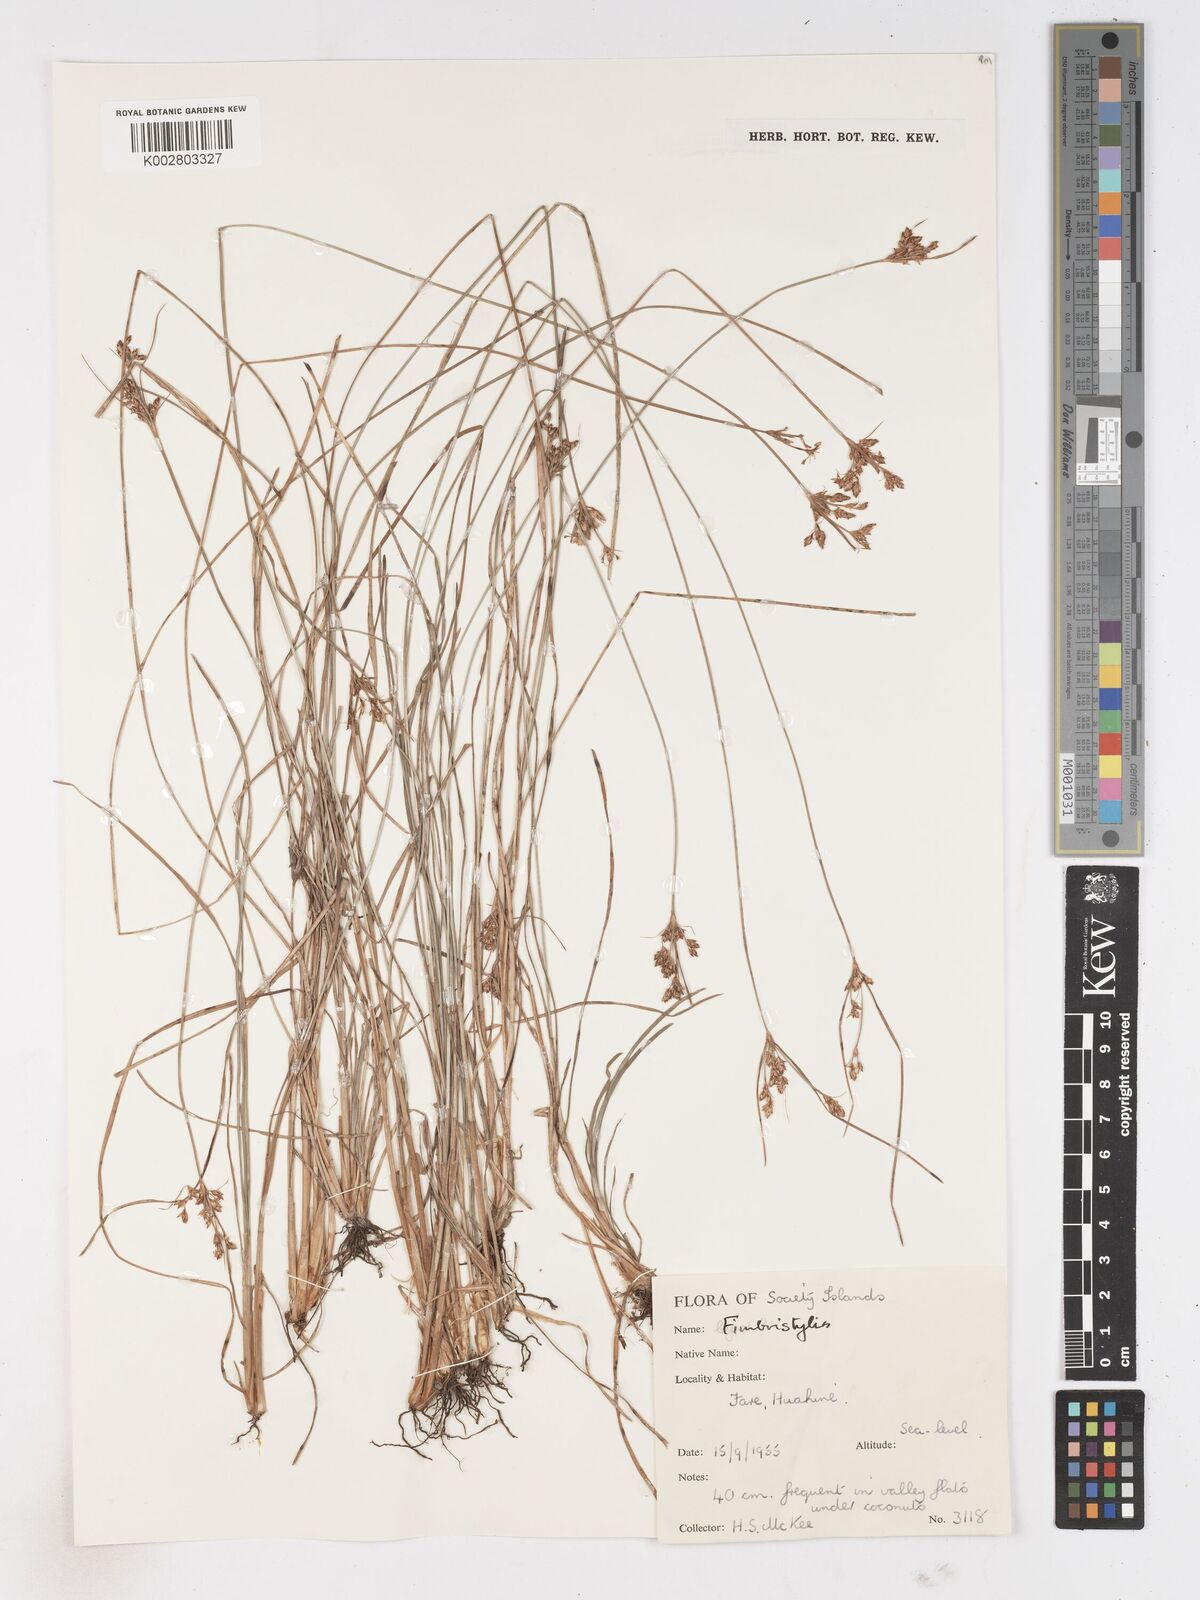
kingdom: Plantae
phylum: Tracheophyta
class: Liliopsida
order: Poales
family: Cyperaceae
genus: Fimbristylis
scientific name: Fimbristylis
